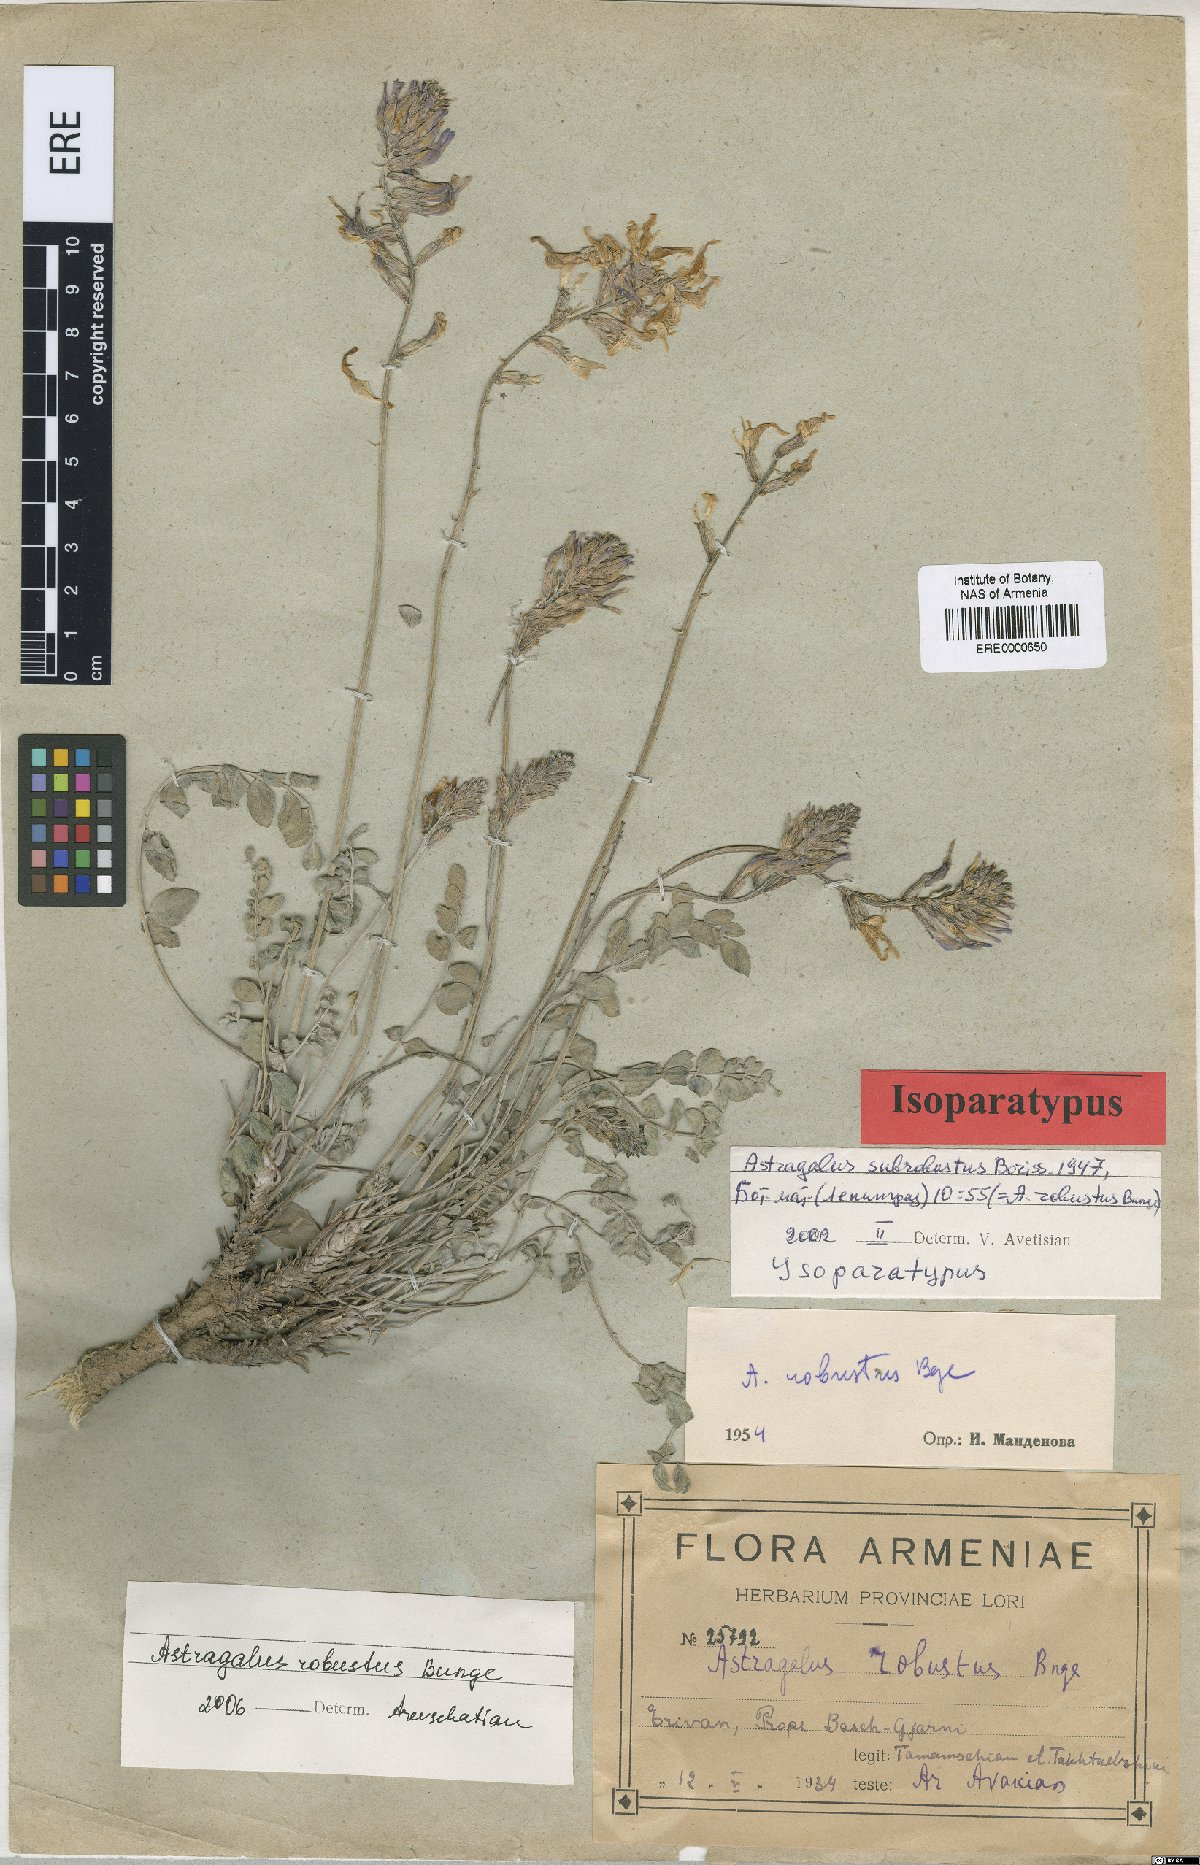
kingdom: Plantae
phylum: Tracheophyta
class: Magnoliopsida
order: Fabales
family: Fabaceae
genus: Astragalus
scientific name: Astragalus robustus
